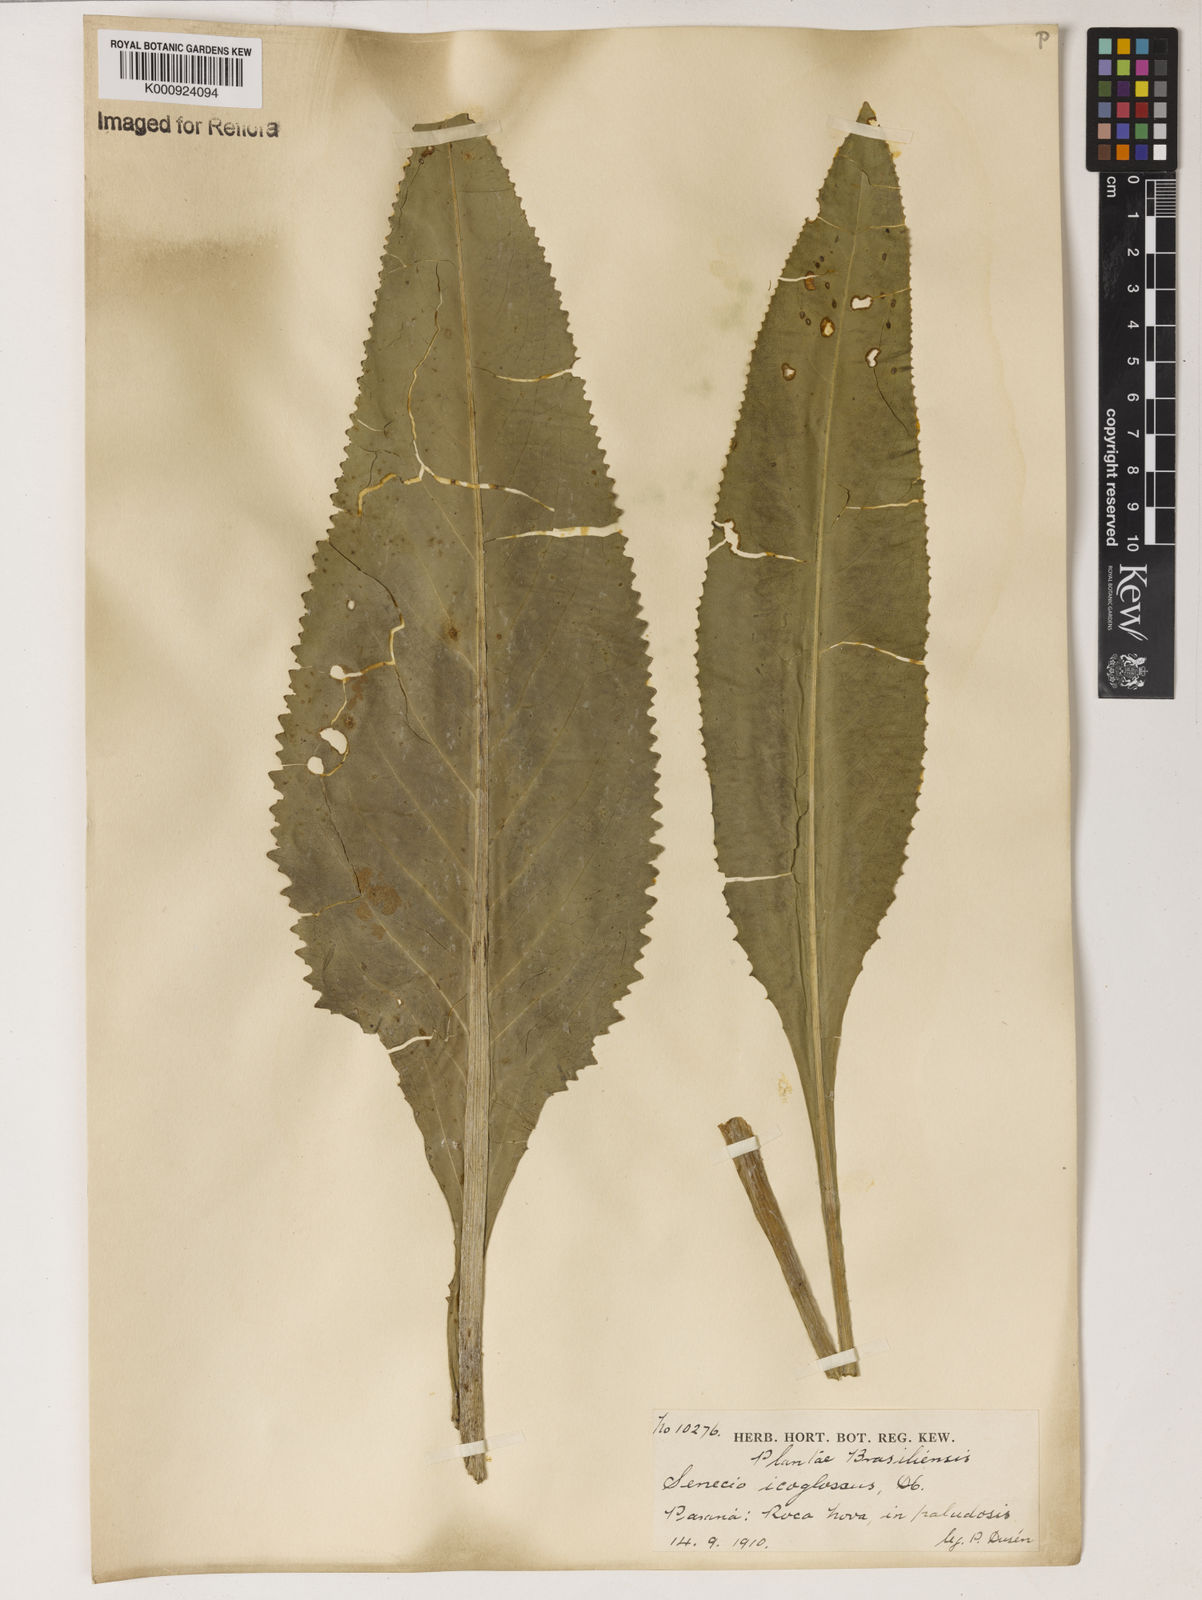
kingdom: Plantae
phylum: Tracheophyta
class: Magnoliopsida
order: Asterales
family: Asteraceae
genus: Senecio
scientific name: Senecio icoglossus
